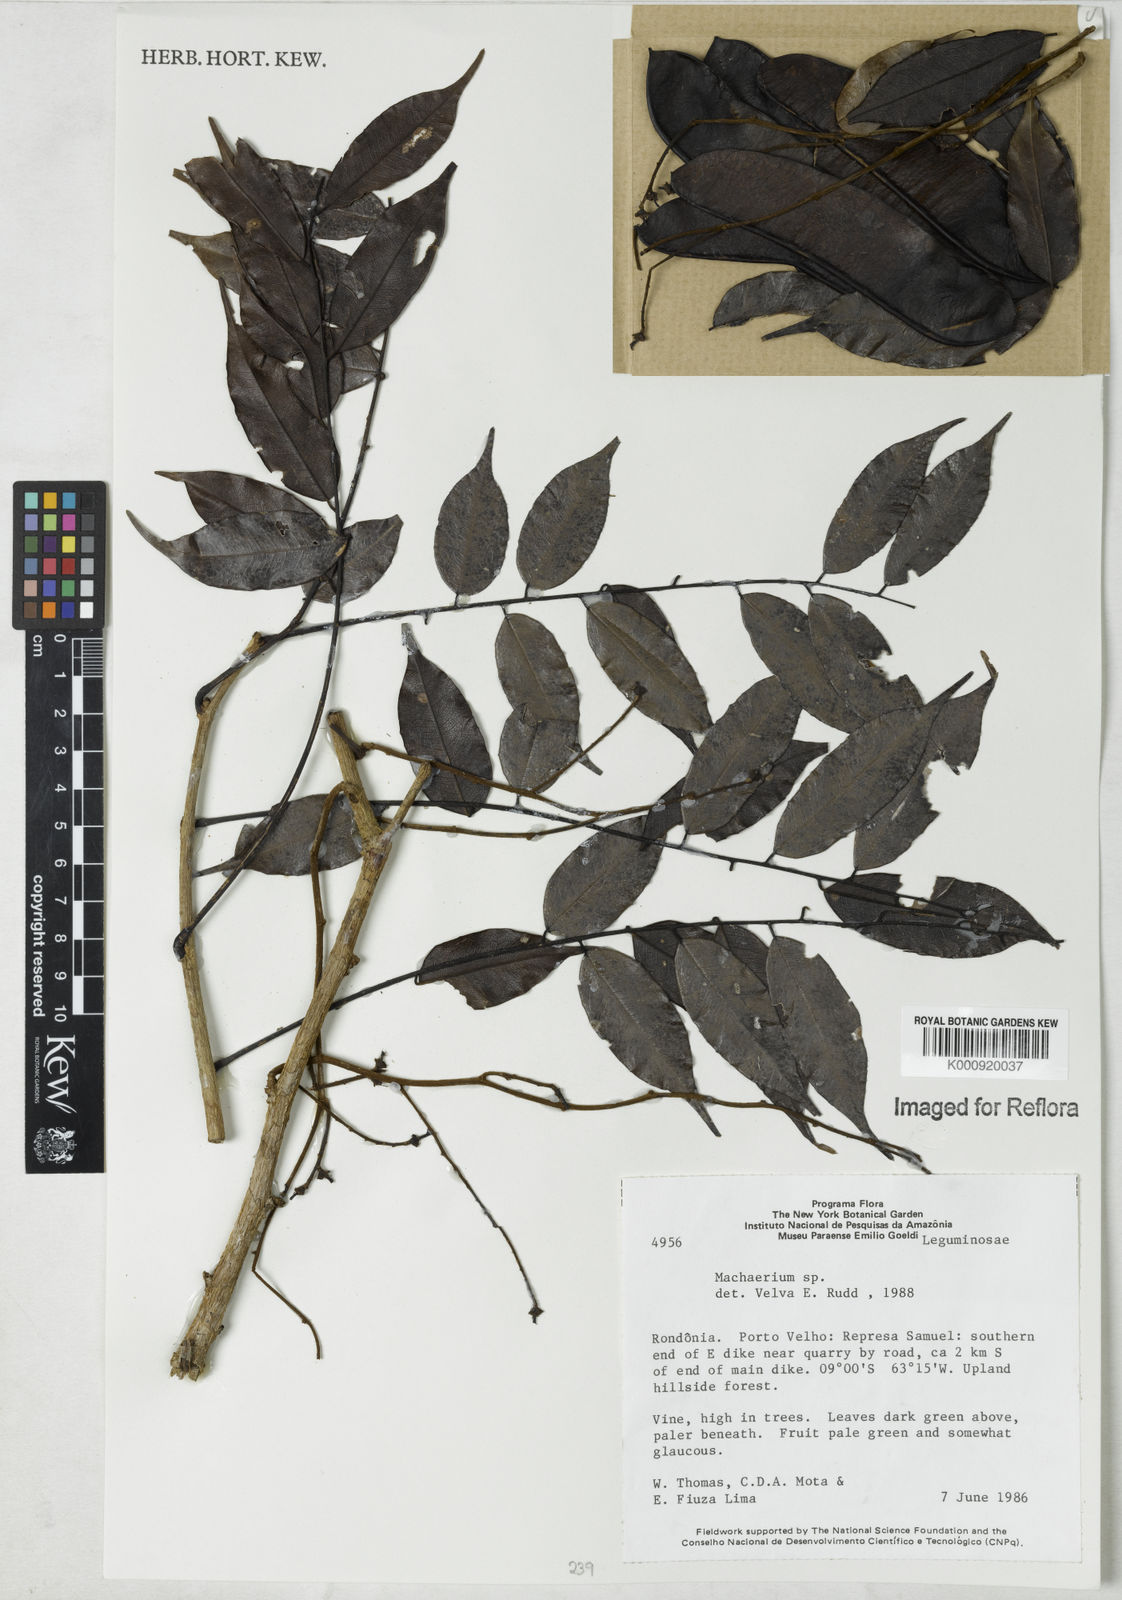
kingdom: Plantae
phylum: Tracheophyta
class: Magnoliopsida
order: Fabales
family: Fabaceae
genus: Machaerium
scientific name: Machaerium
